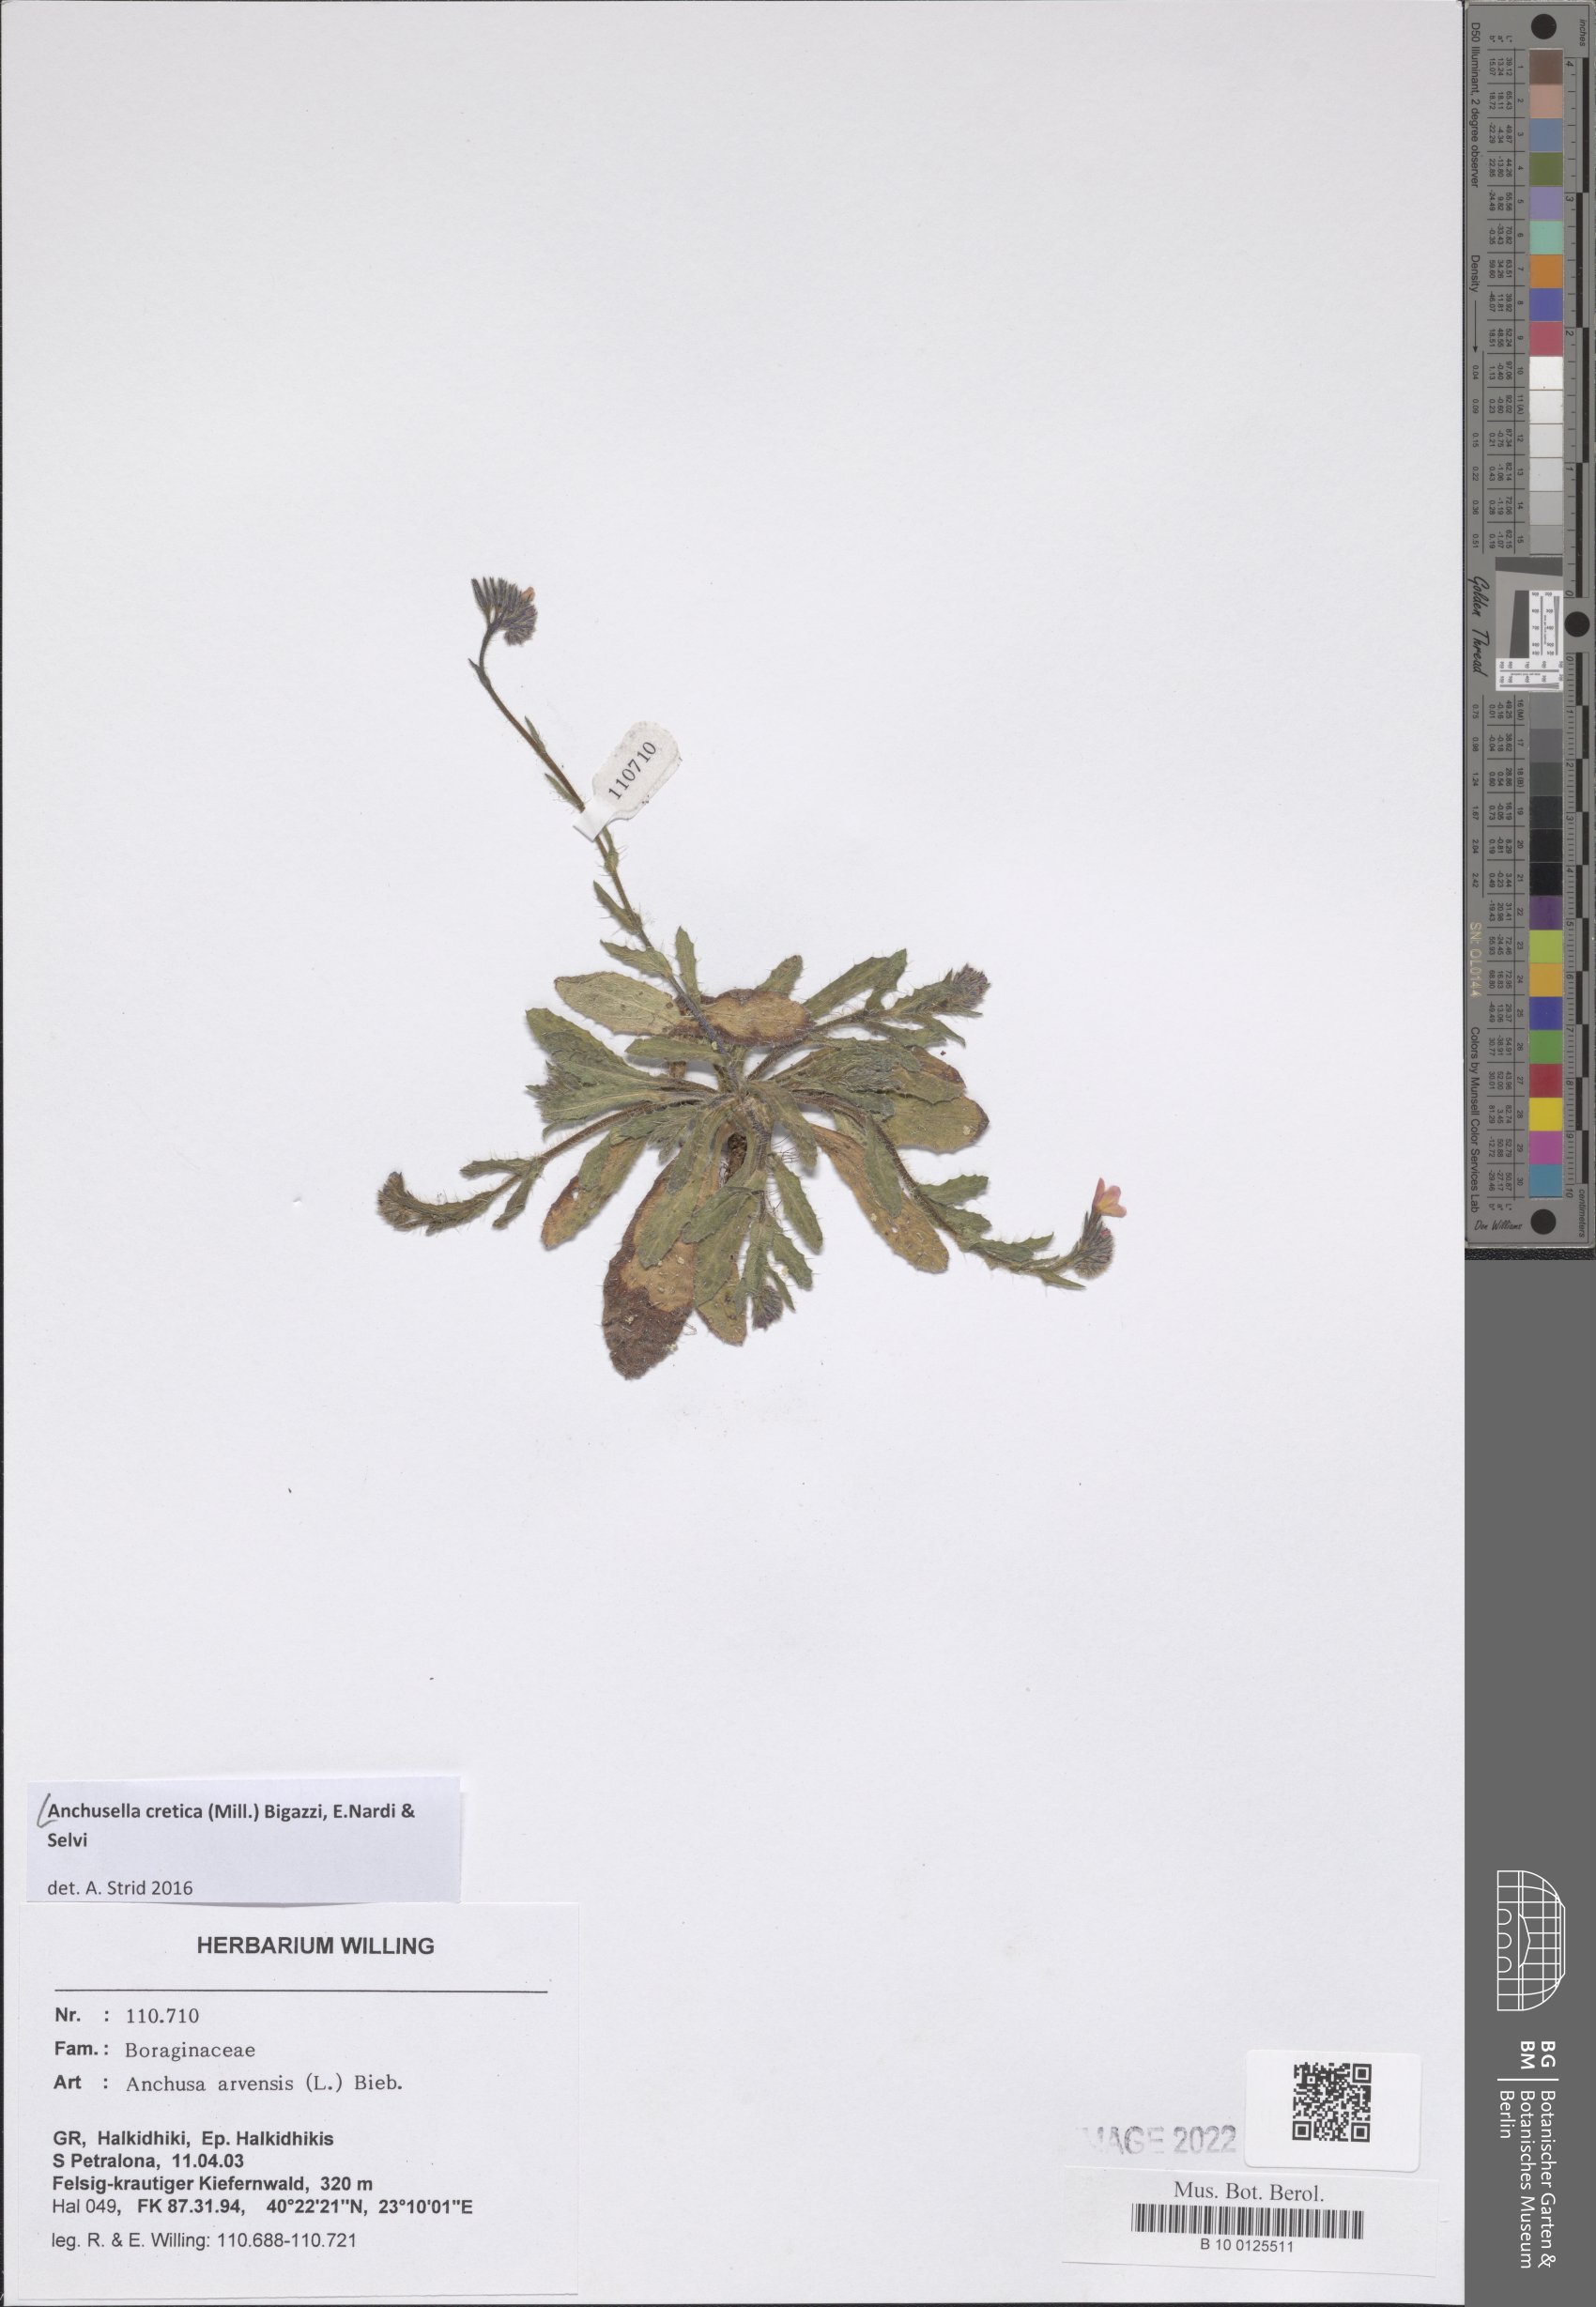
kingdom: Plantae
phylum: Tracheophyta
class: Magnoliopsida
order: Boraginales
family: Boraginaceae
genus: Anchusella
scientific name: Anchusella cretica
